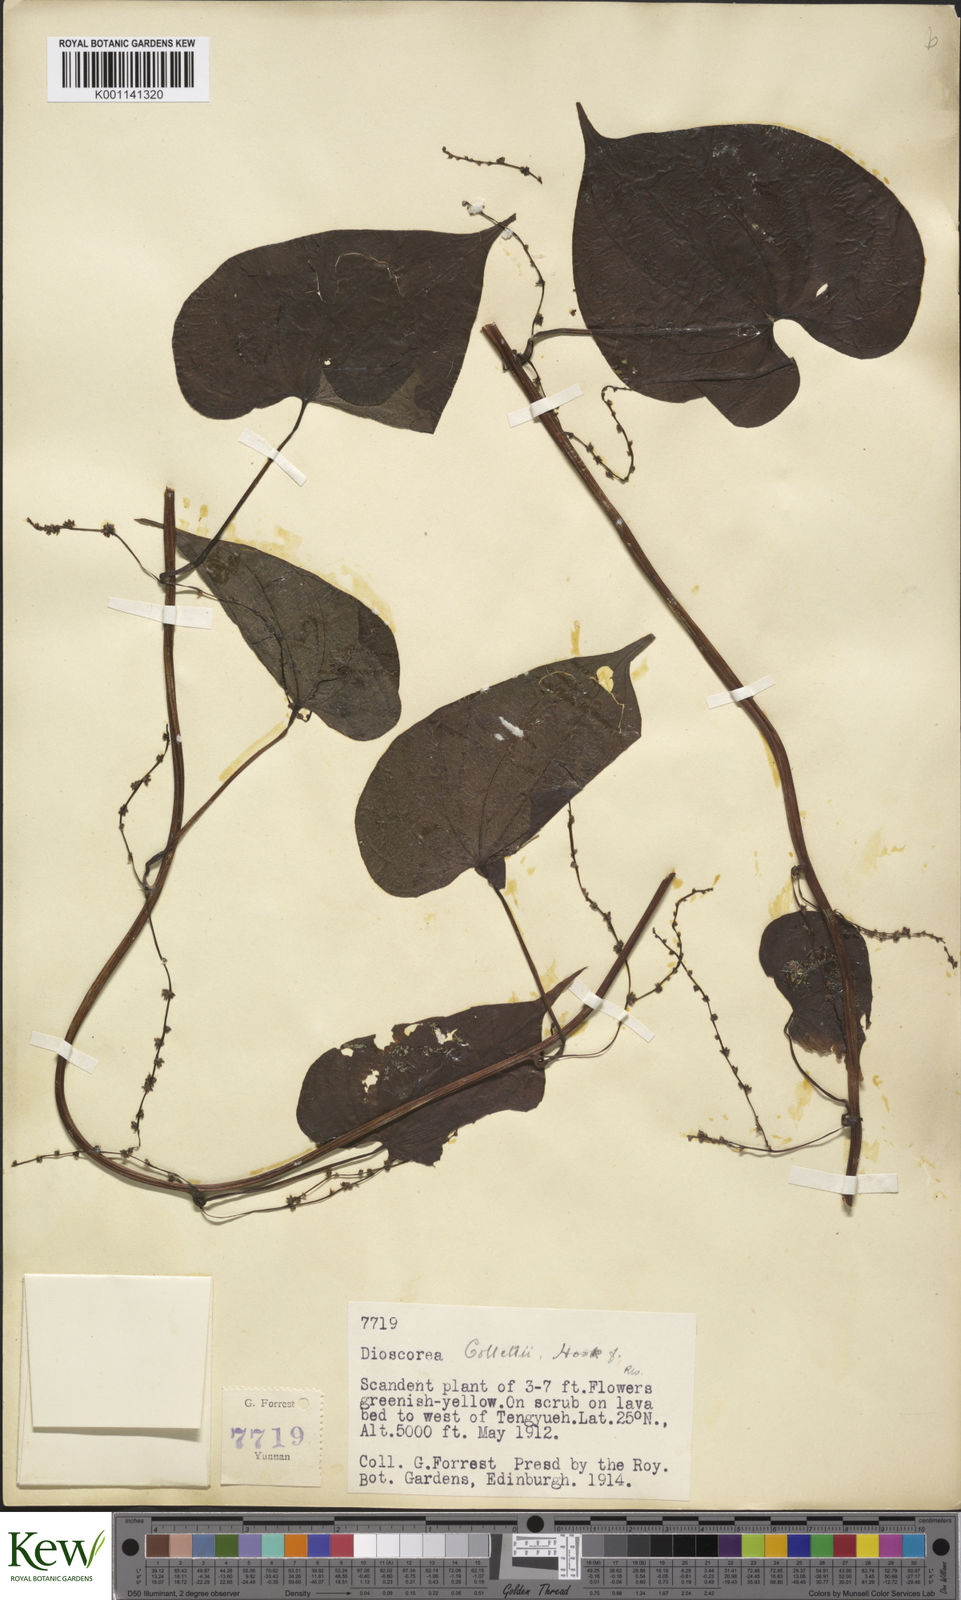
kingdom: Plantae
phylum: Tracheophyta
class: Liliopsida
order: Dioscoreales
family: Dioscoreaceae
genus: Dioscorea
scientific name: Dioscorea collettii
